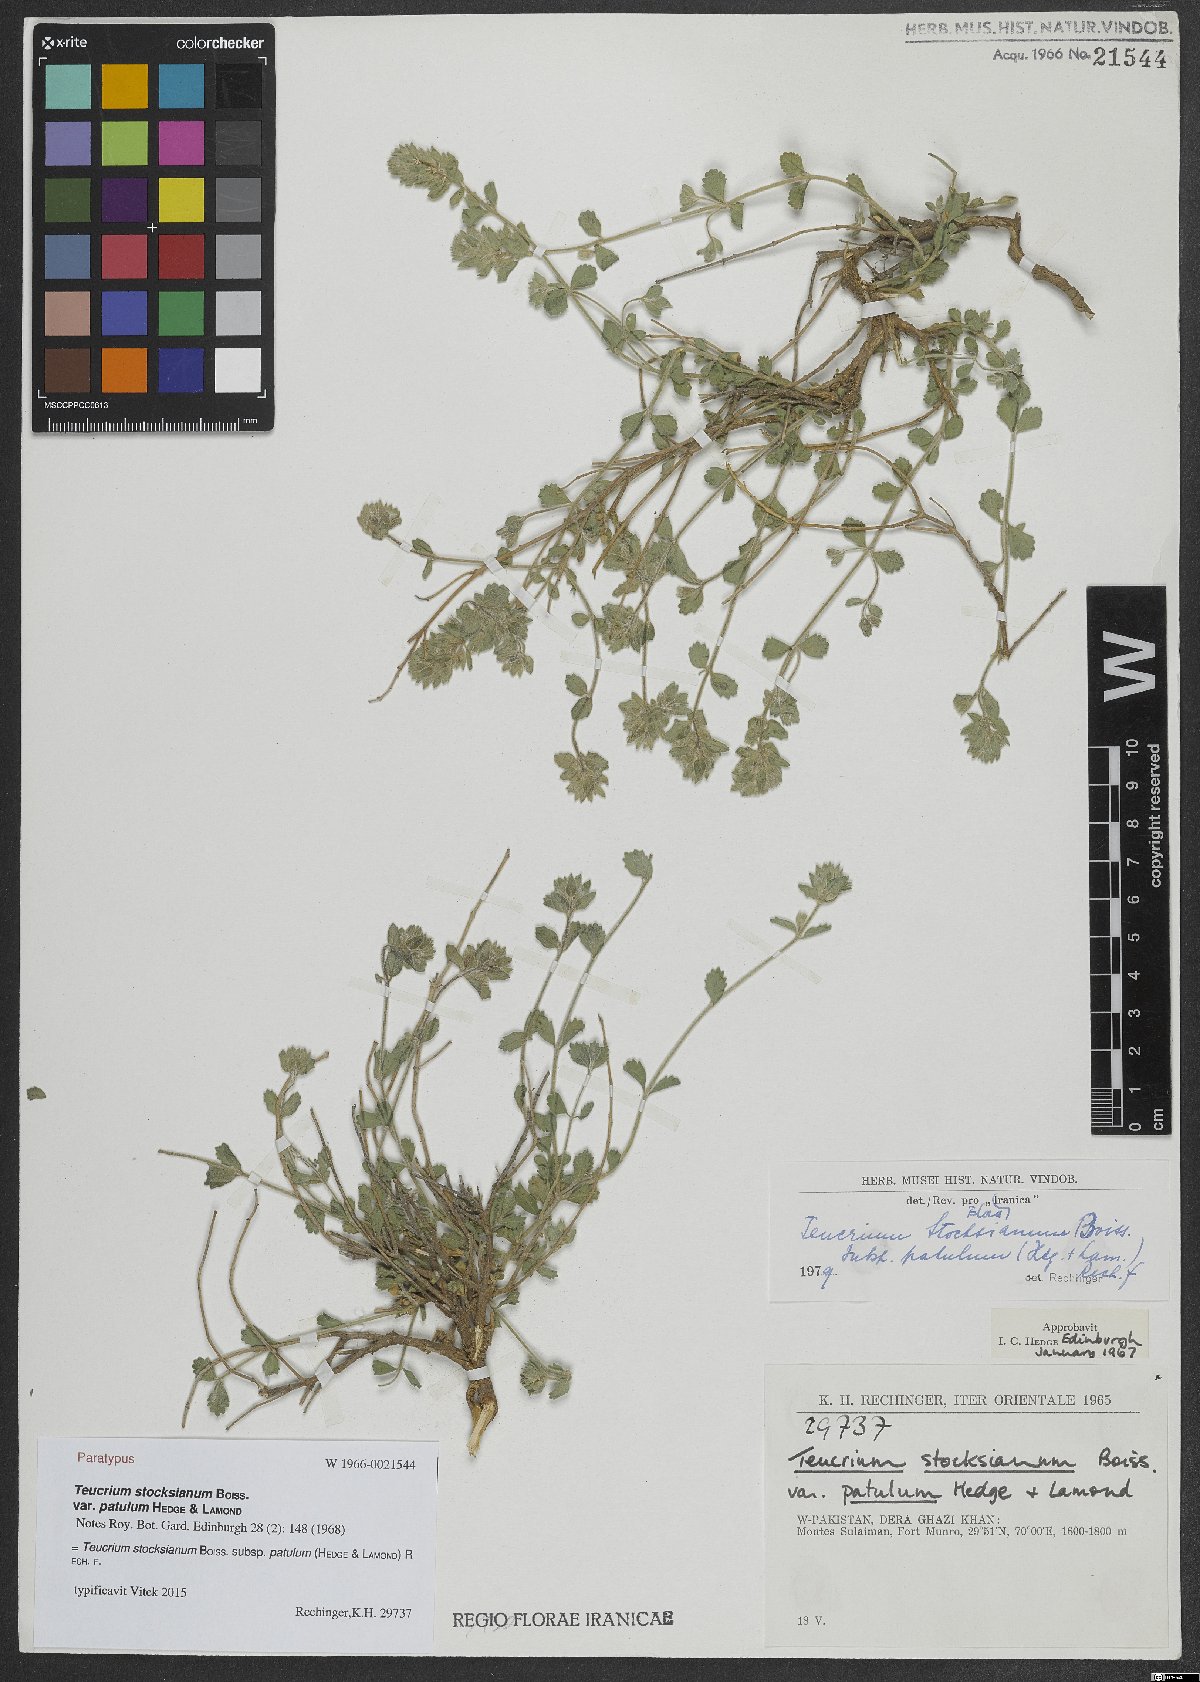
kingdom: Plantae
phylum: Tracheophyta
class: Magnoliopsida
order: Lamiales
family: Lamiaceae
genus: Teucrium
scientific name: Teucrium stocksianum
